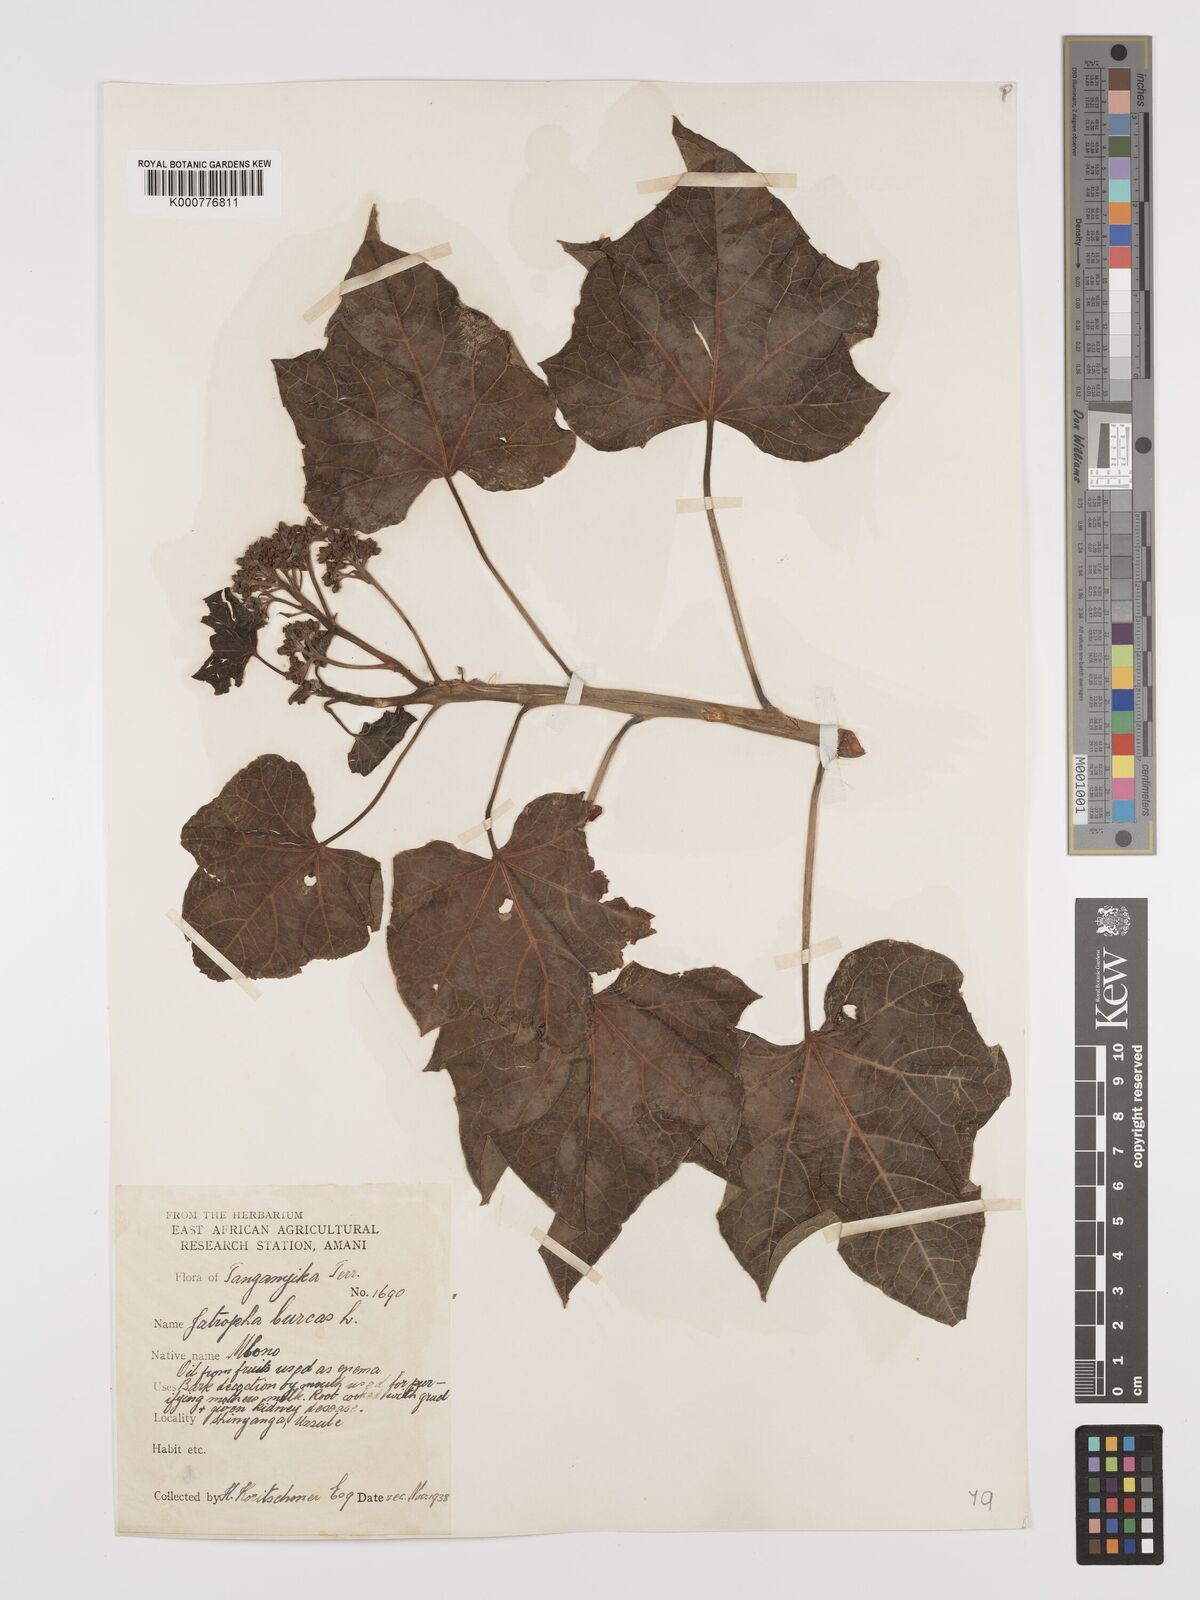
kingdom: Plantae
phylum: Tracheophyta
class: Magnoliopsida
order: Malpighiales
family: Euphorbiaceae
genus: Jatropha
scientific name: Jatropha curcas
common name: Barbados nut
